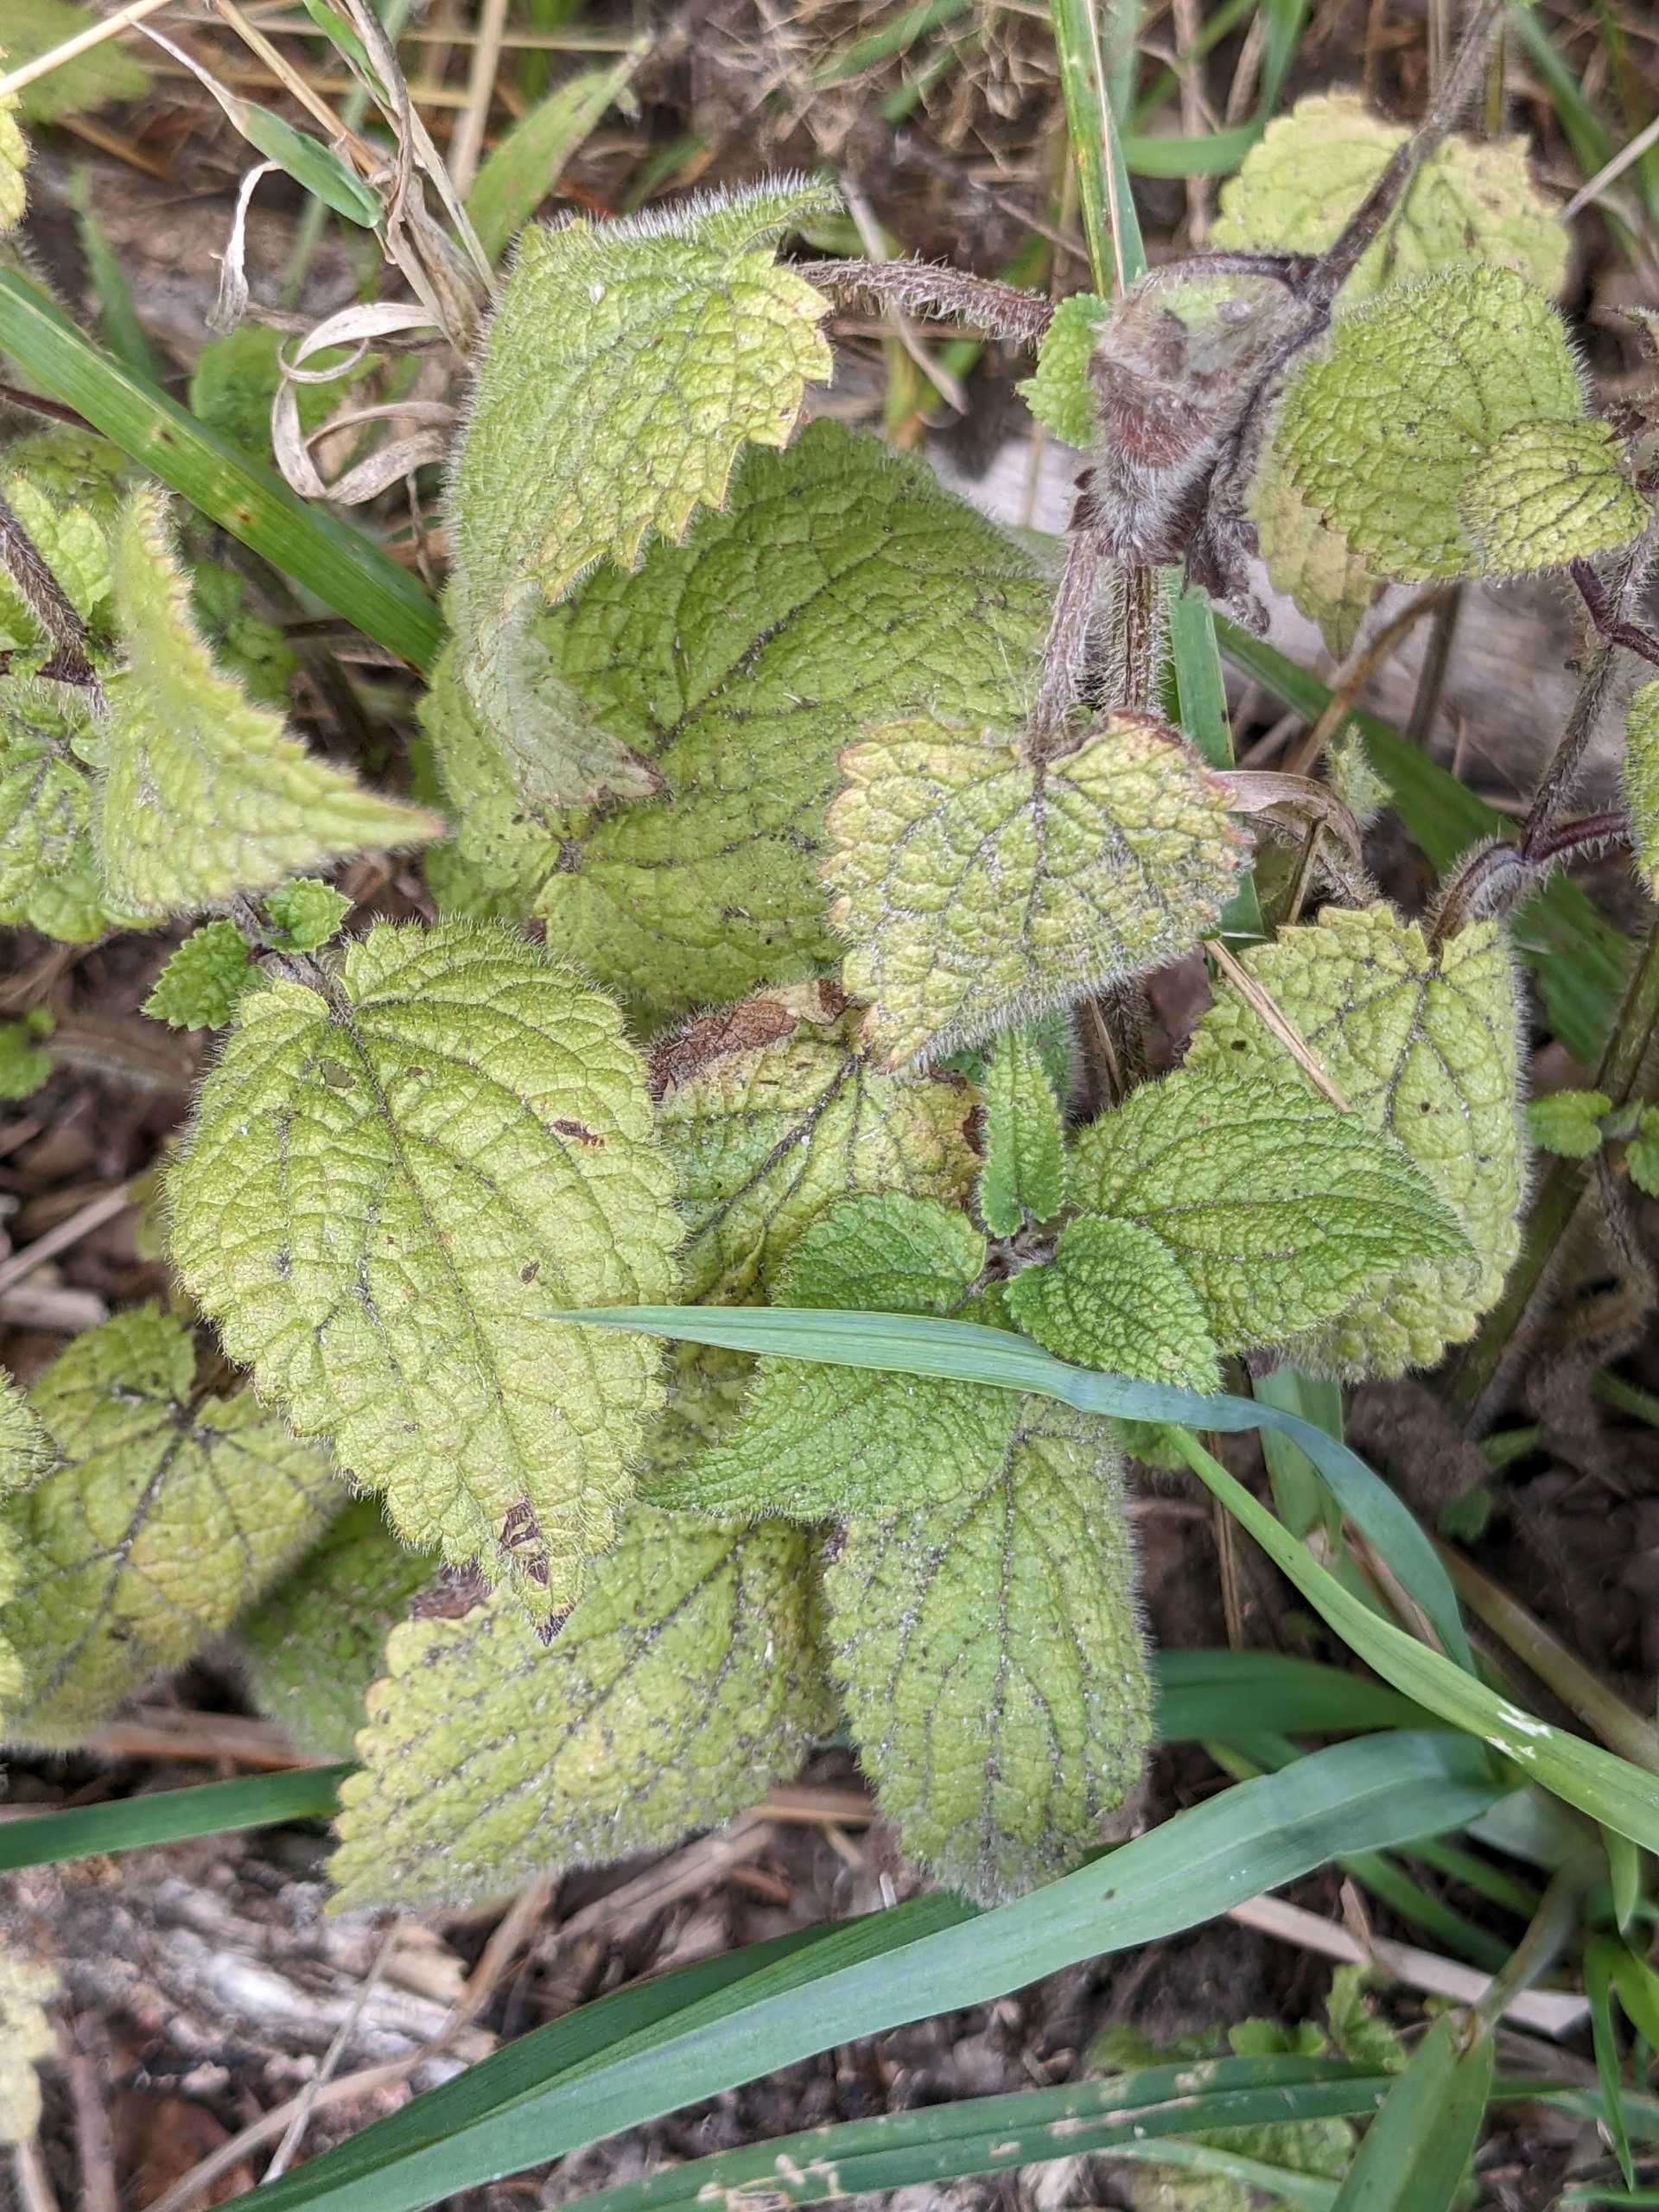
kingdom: Plantae
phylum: Tracheophyta
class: Magnoliopsida
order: Lamiales
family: Lamiaceae
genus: Stachys
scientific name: Stachys sylvatica
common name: Skov-galtetand
